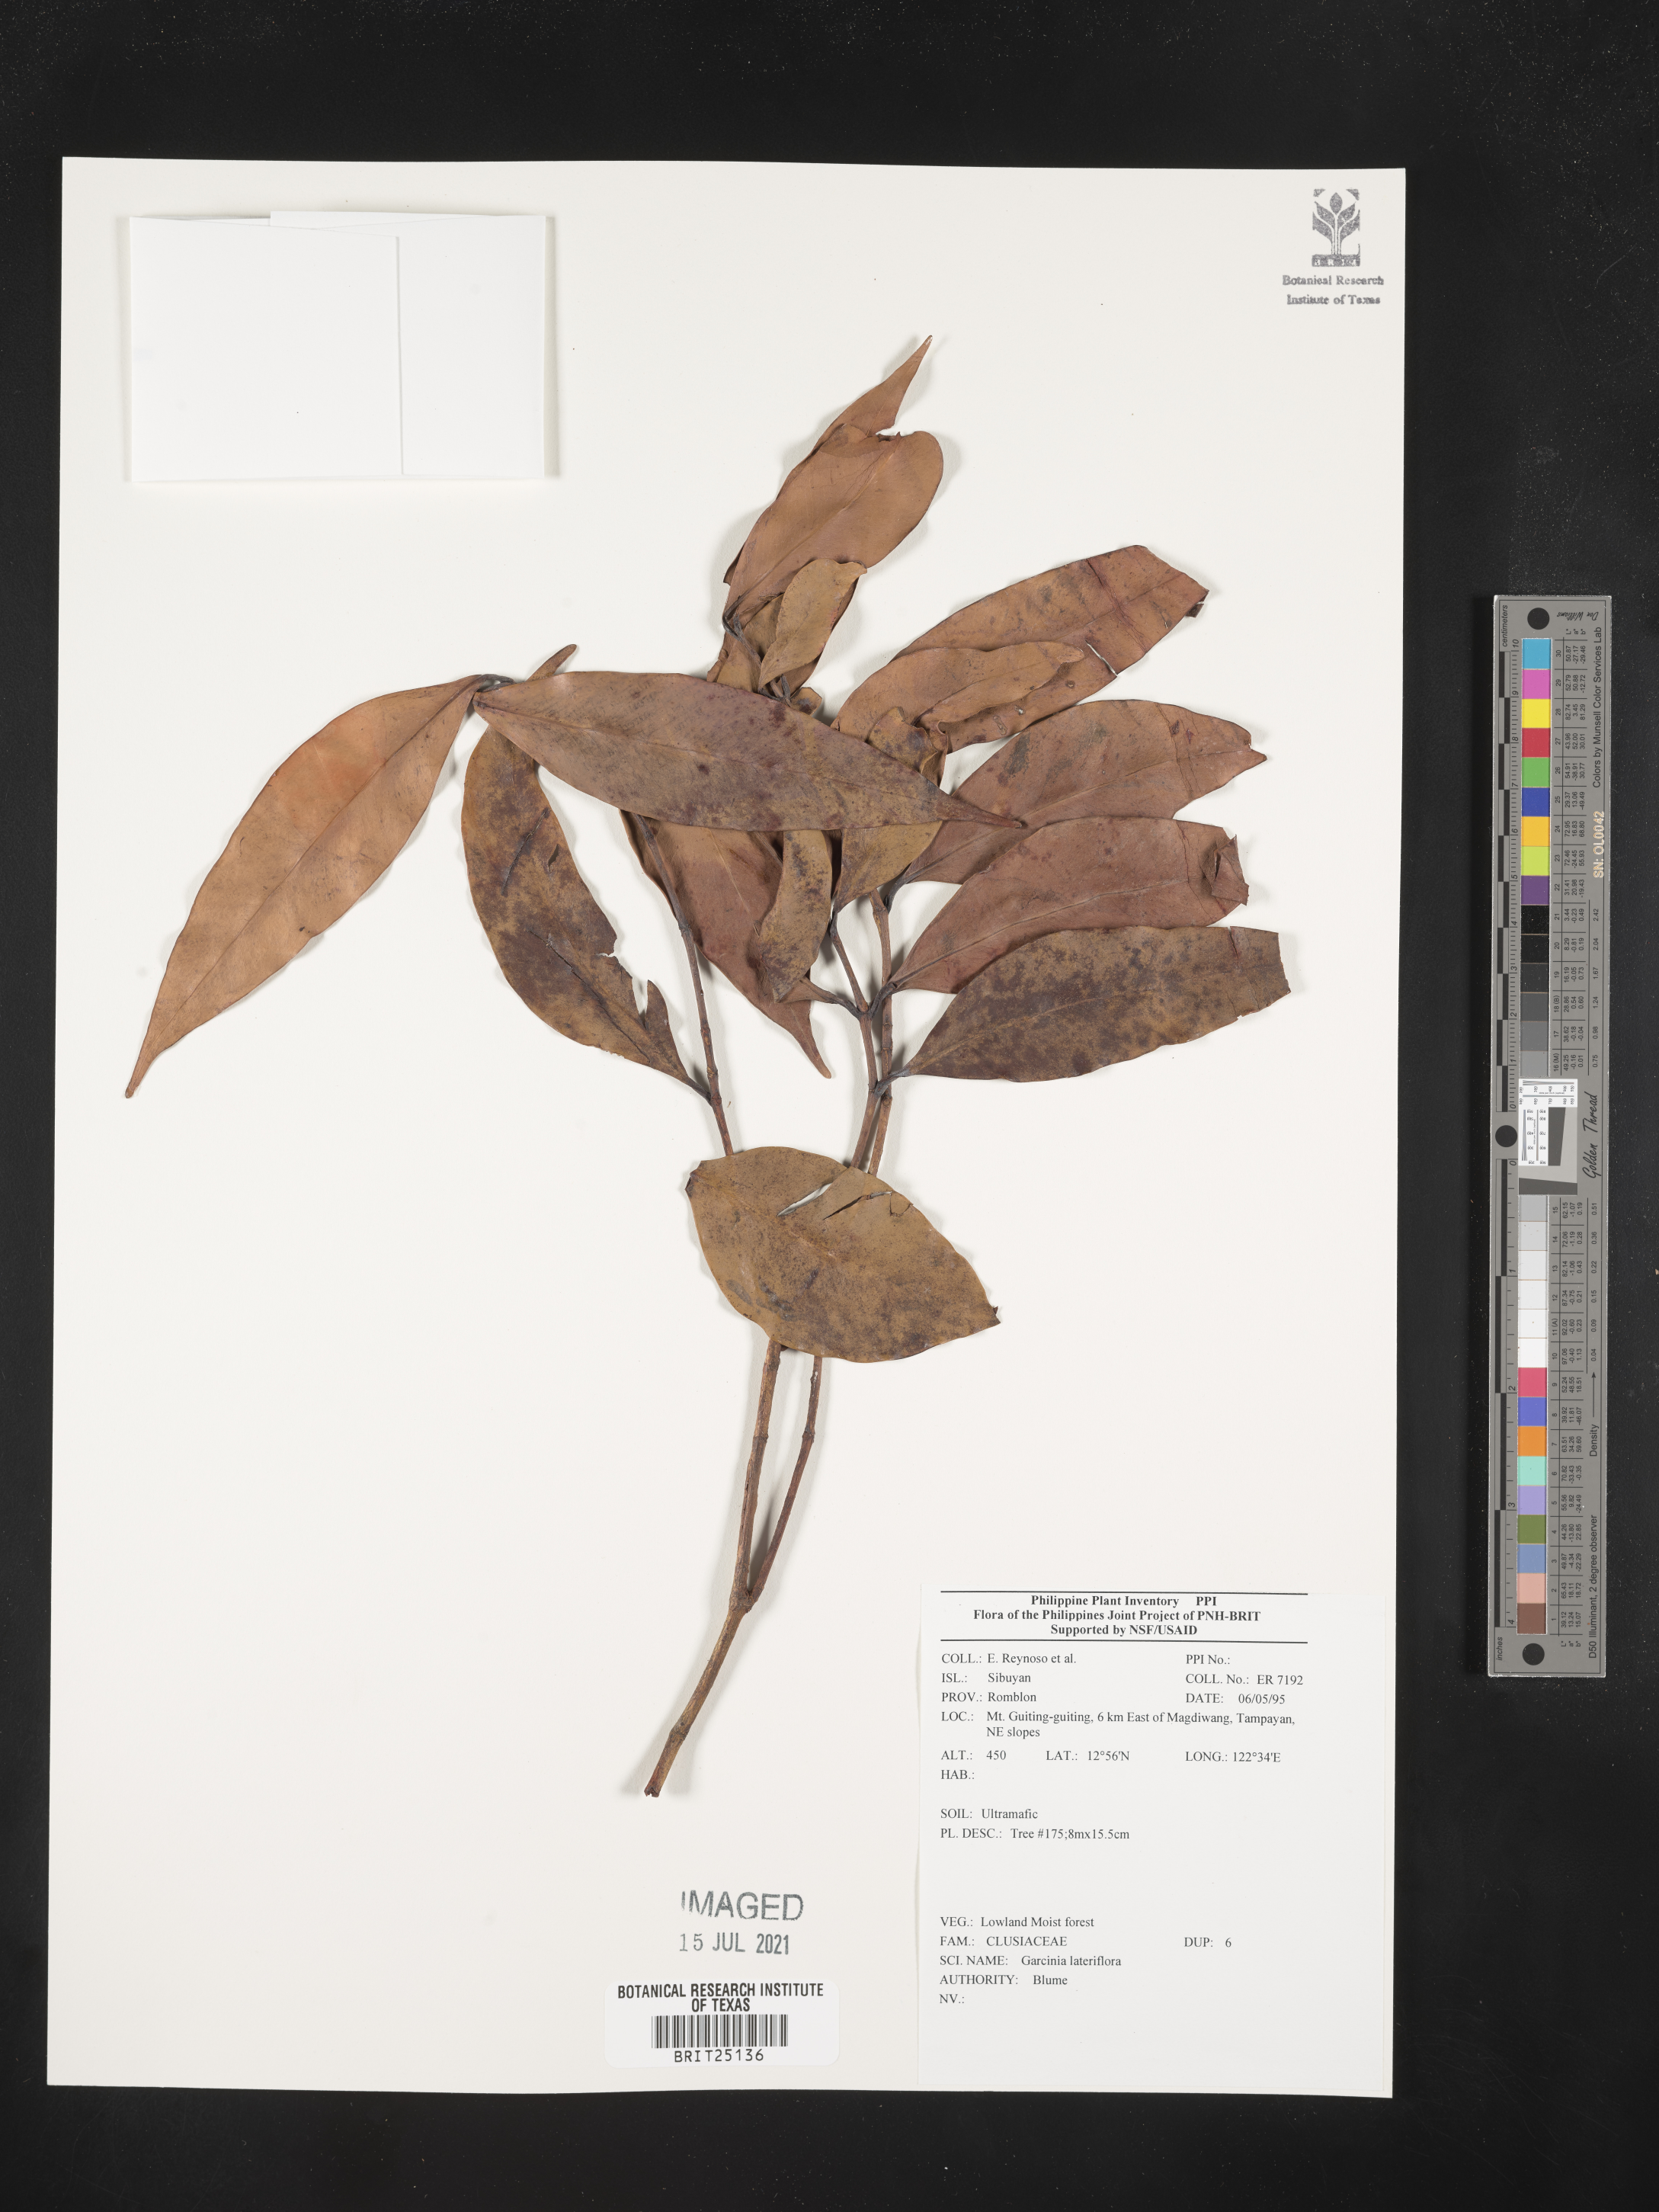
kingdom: Plantae
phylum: Tracheophyta
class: Magnoliopsida
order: Malpighiales
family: Clusiaceae
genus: Garcinia
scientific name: Garcinia lateriflora
